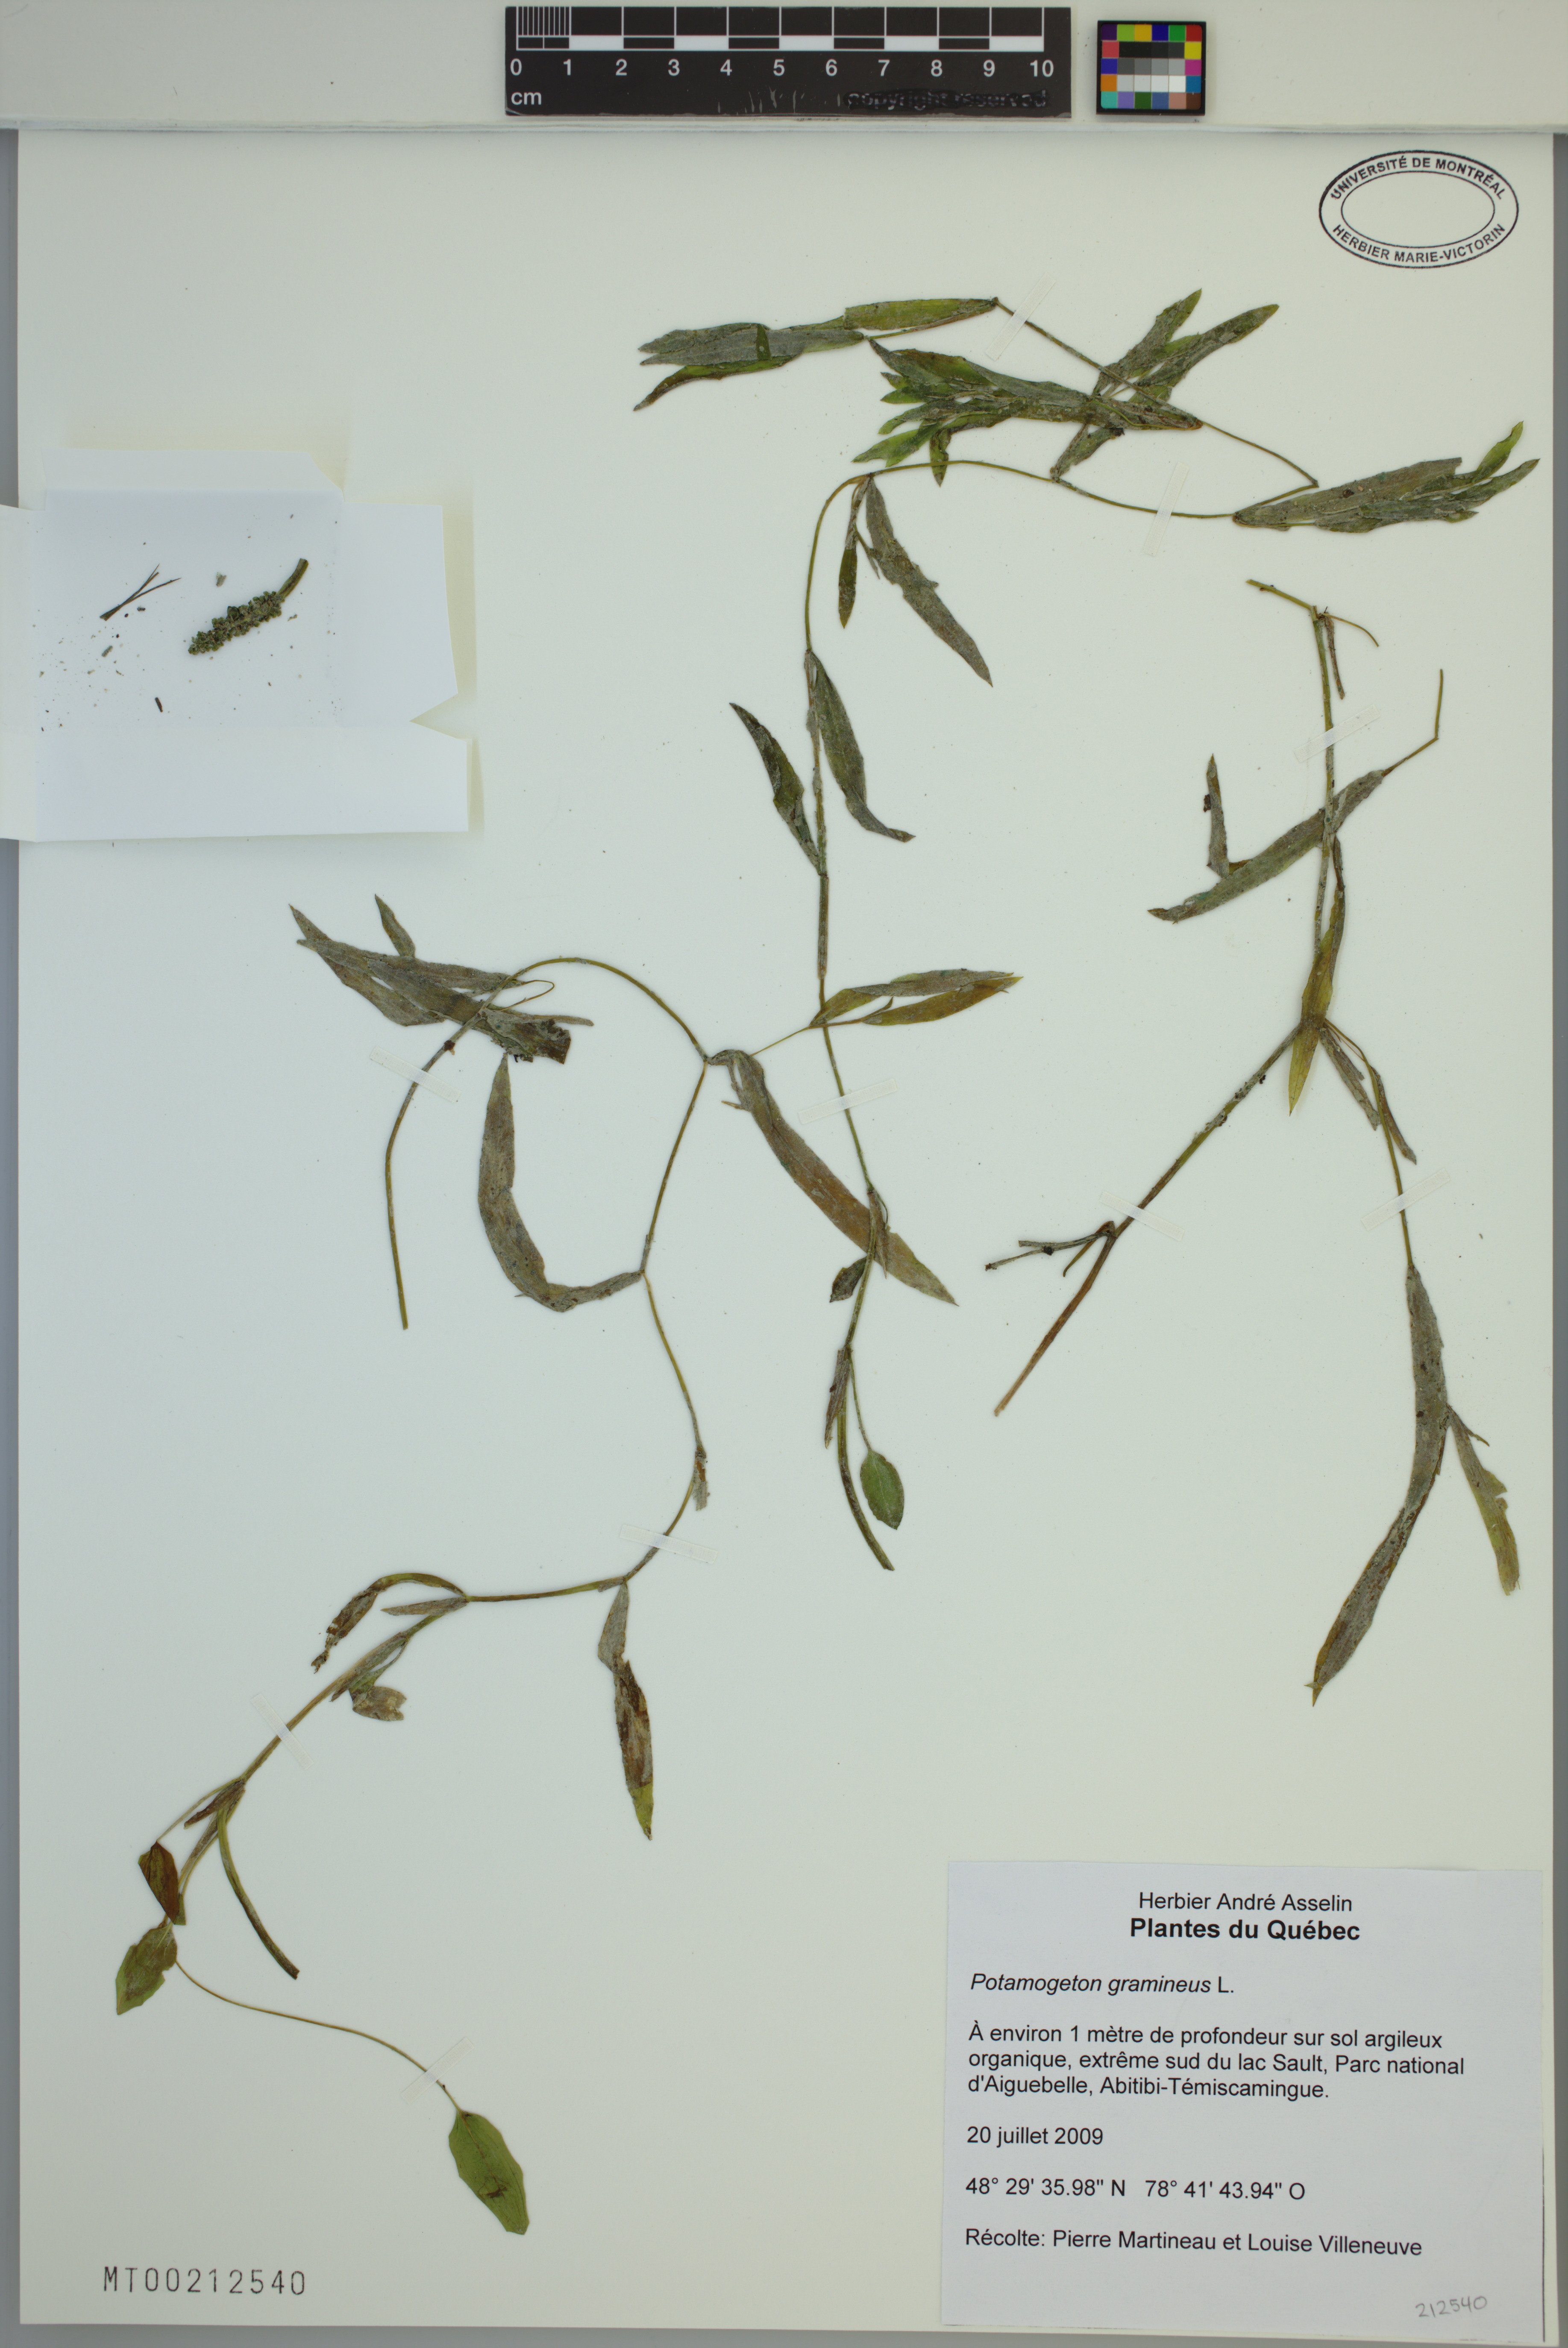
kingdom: Plantae
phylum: Tracheophyta
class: Liliopsida
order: Alismatales
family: Potamogetonaceae
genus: Potamogeton
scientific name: Potamogeton gramineus
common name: Various-leaved pondweed
